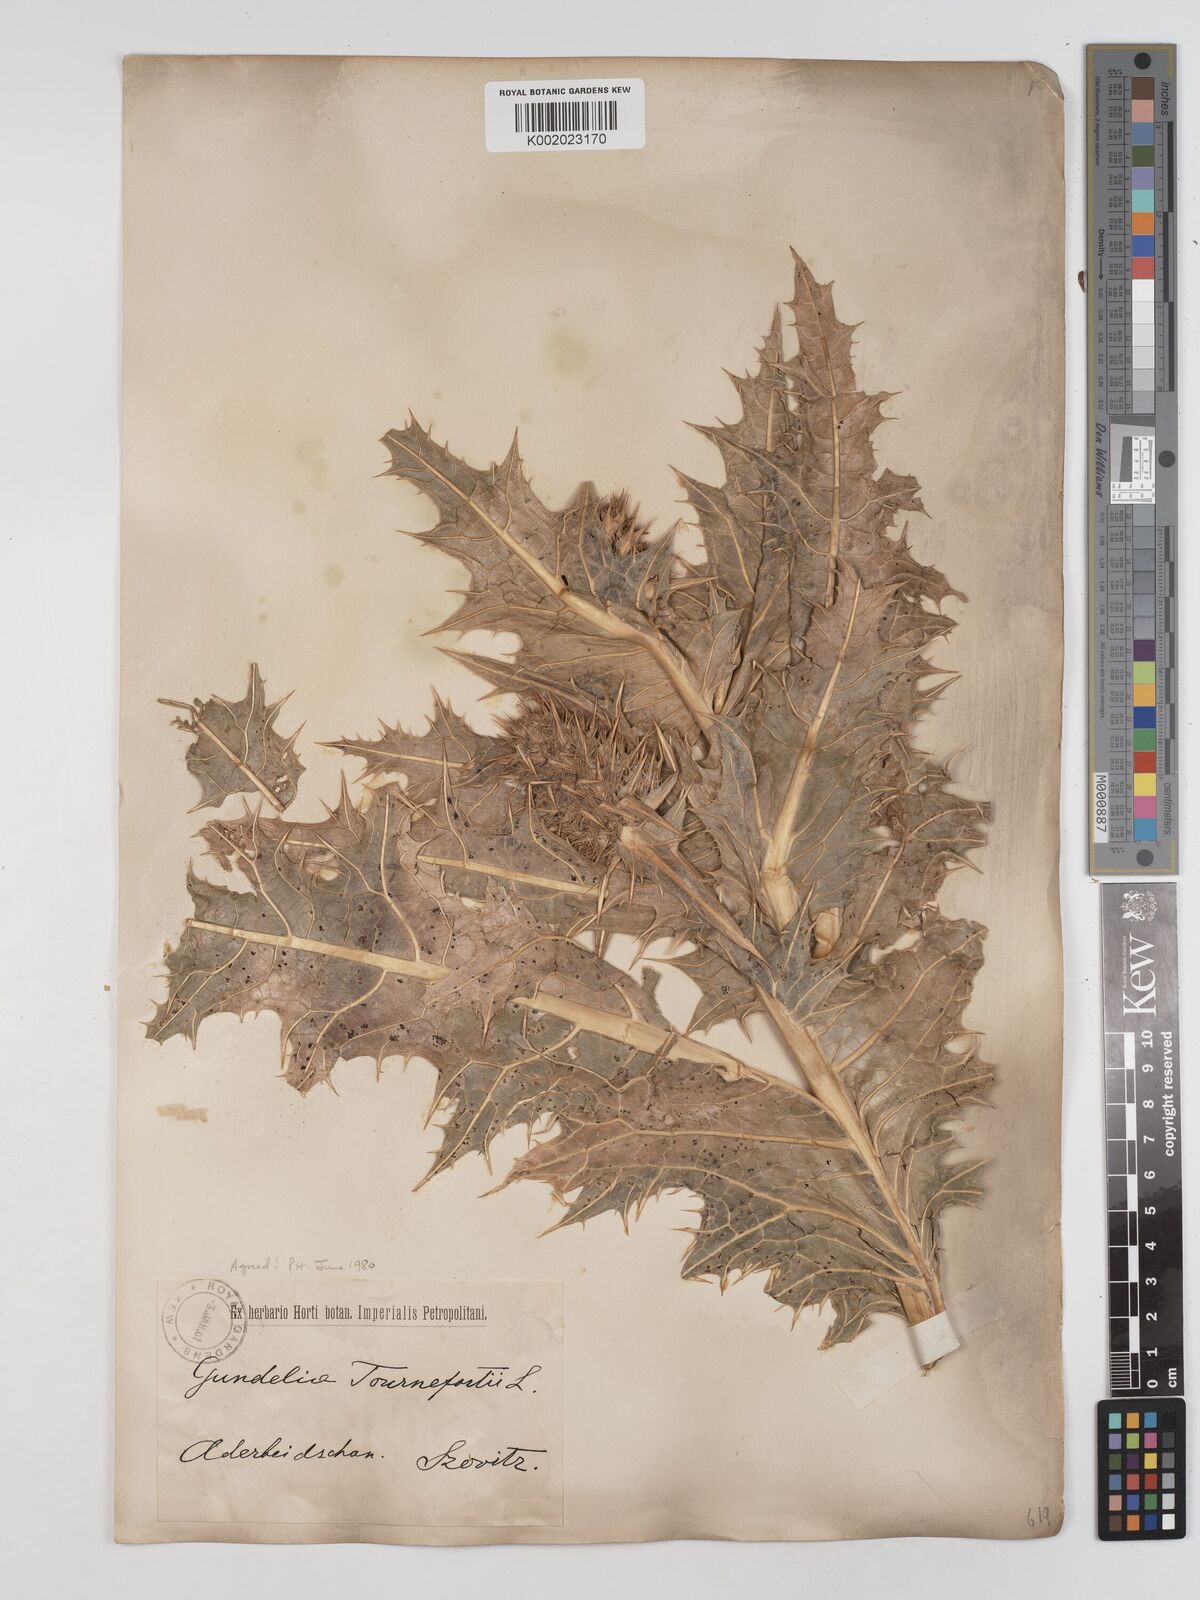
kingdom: Plantae
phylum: Tracheophyta
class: Magnoliopsida
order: Asterales
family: Asteraceae
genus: Gundelia
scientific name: Gundelia tournefortii
